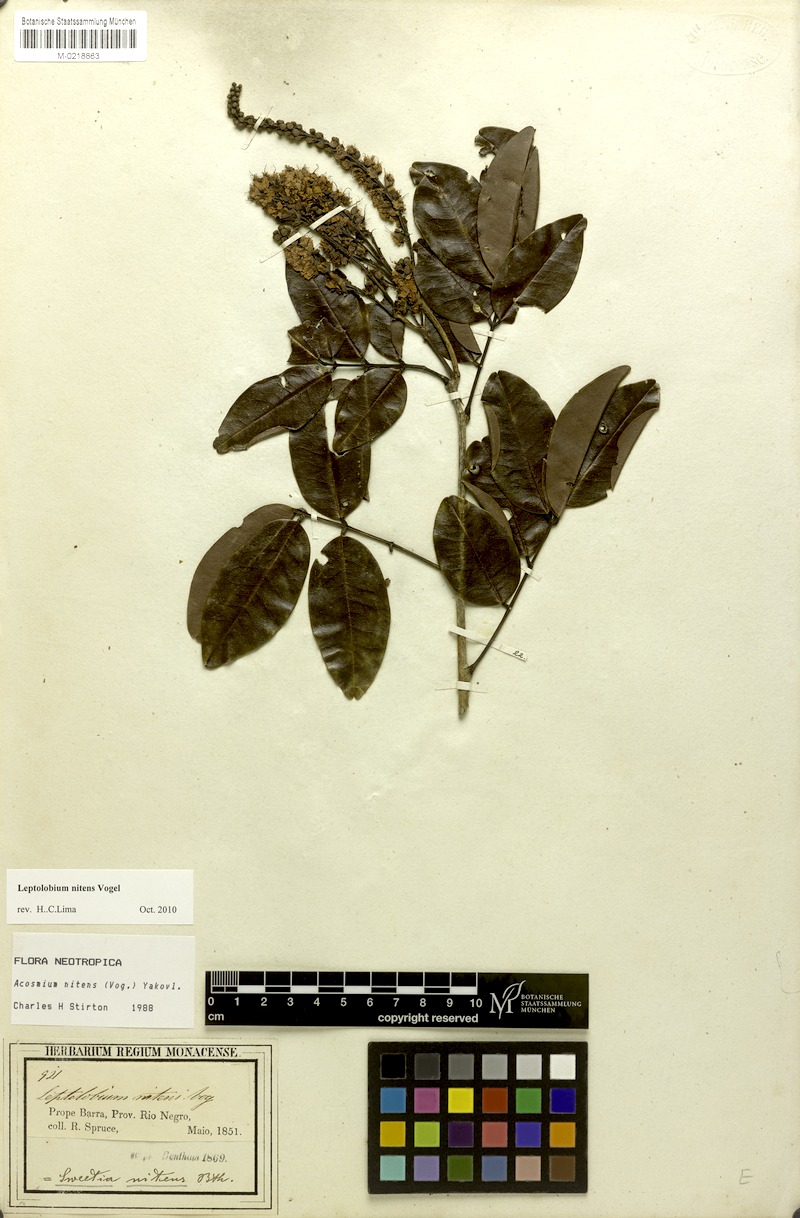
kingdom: Plantae
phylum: Tracheophyta
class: Magnoliopsida
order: Fabales
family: Fabaceae
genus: Leptolobium
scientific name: Leptolobium nitens
